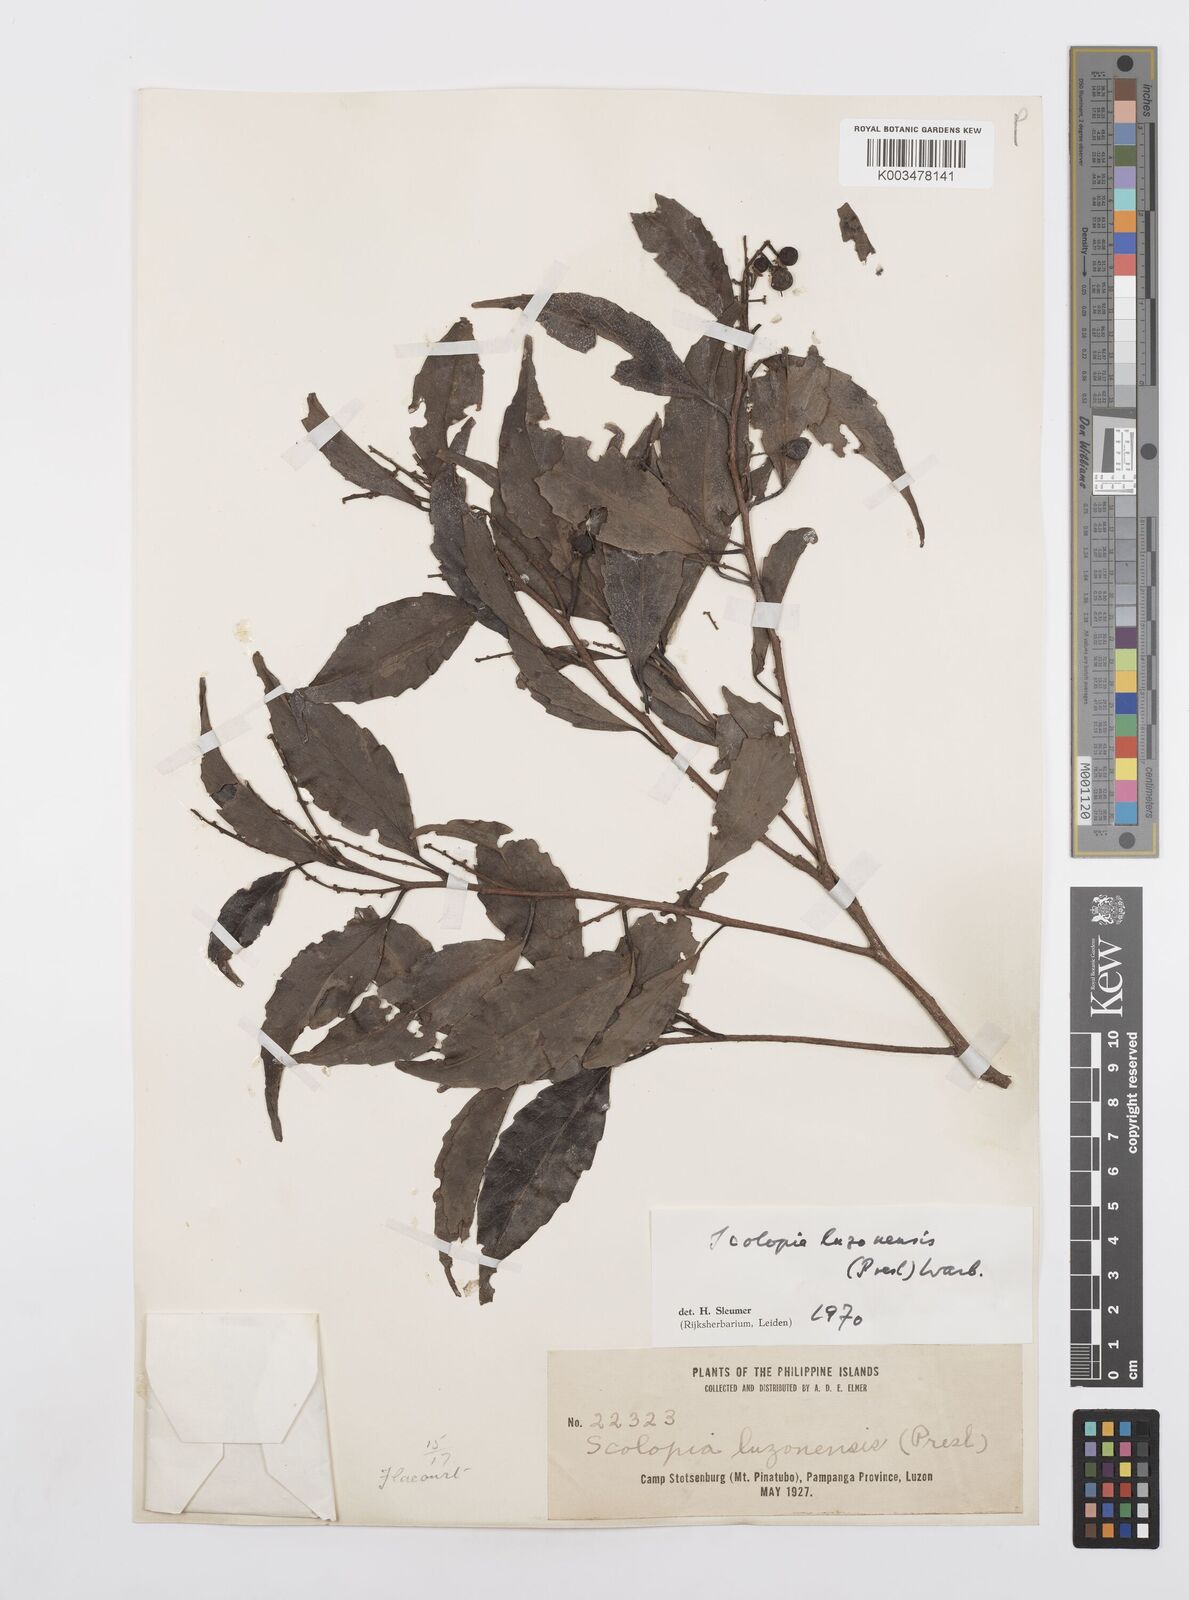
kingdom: Plantae
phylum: Tracheophyta
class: Magnoliopsida
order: Malpighiales
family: Salicaceae
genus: Scolopia
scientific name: Scolopia luzonensis
